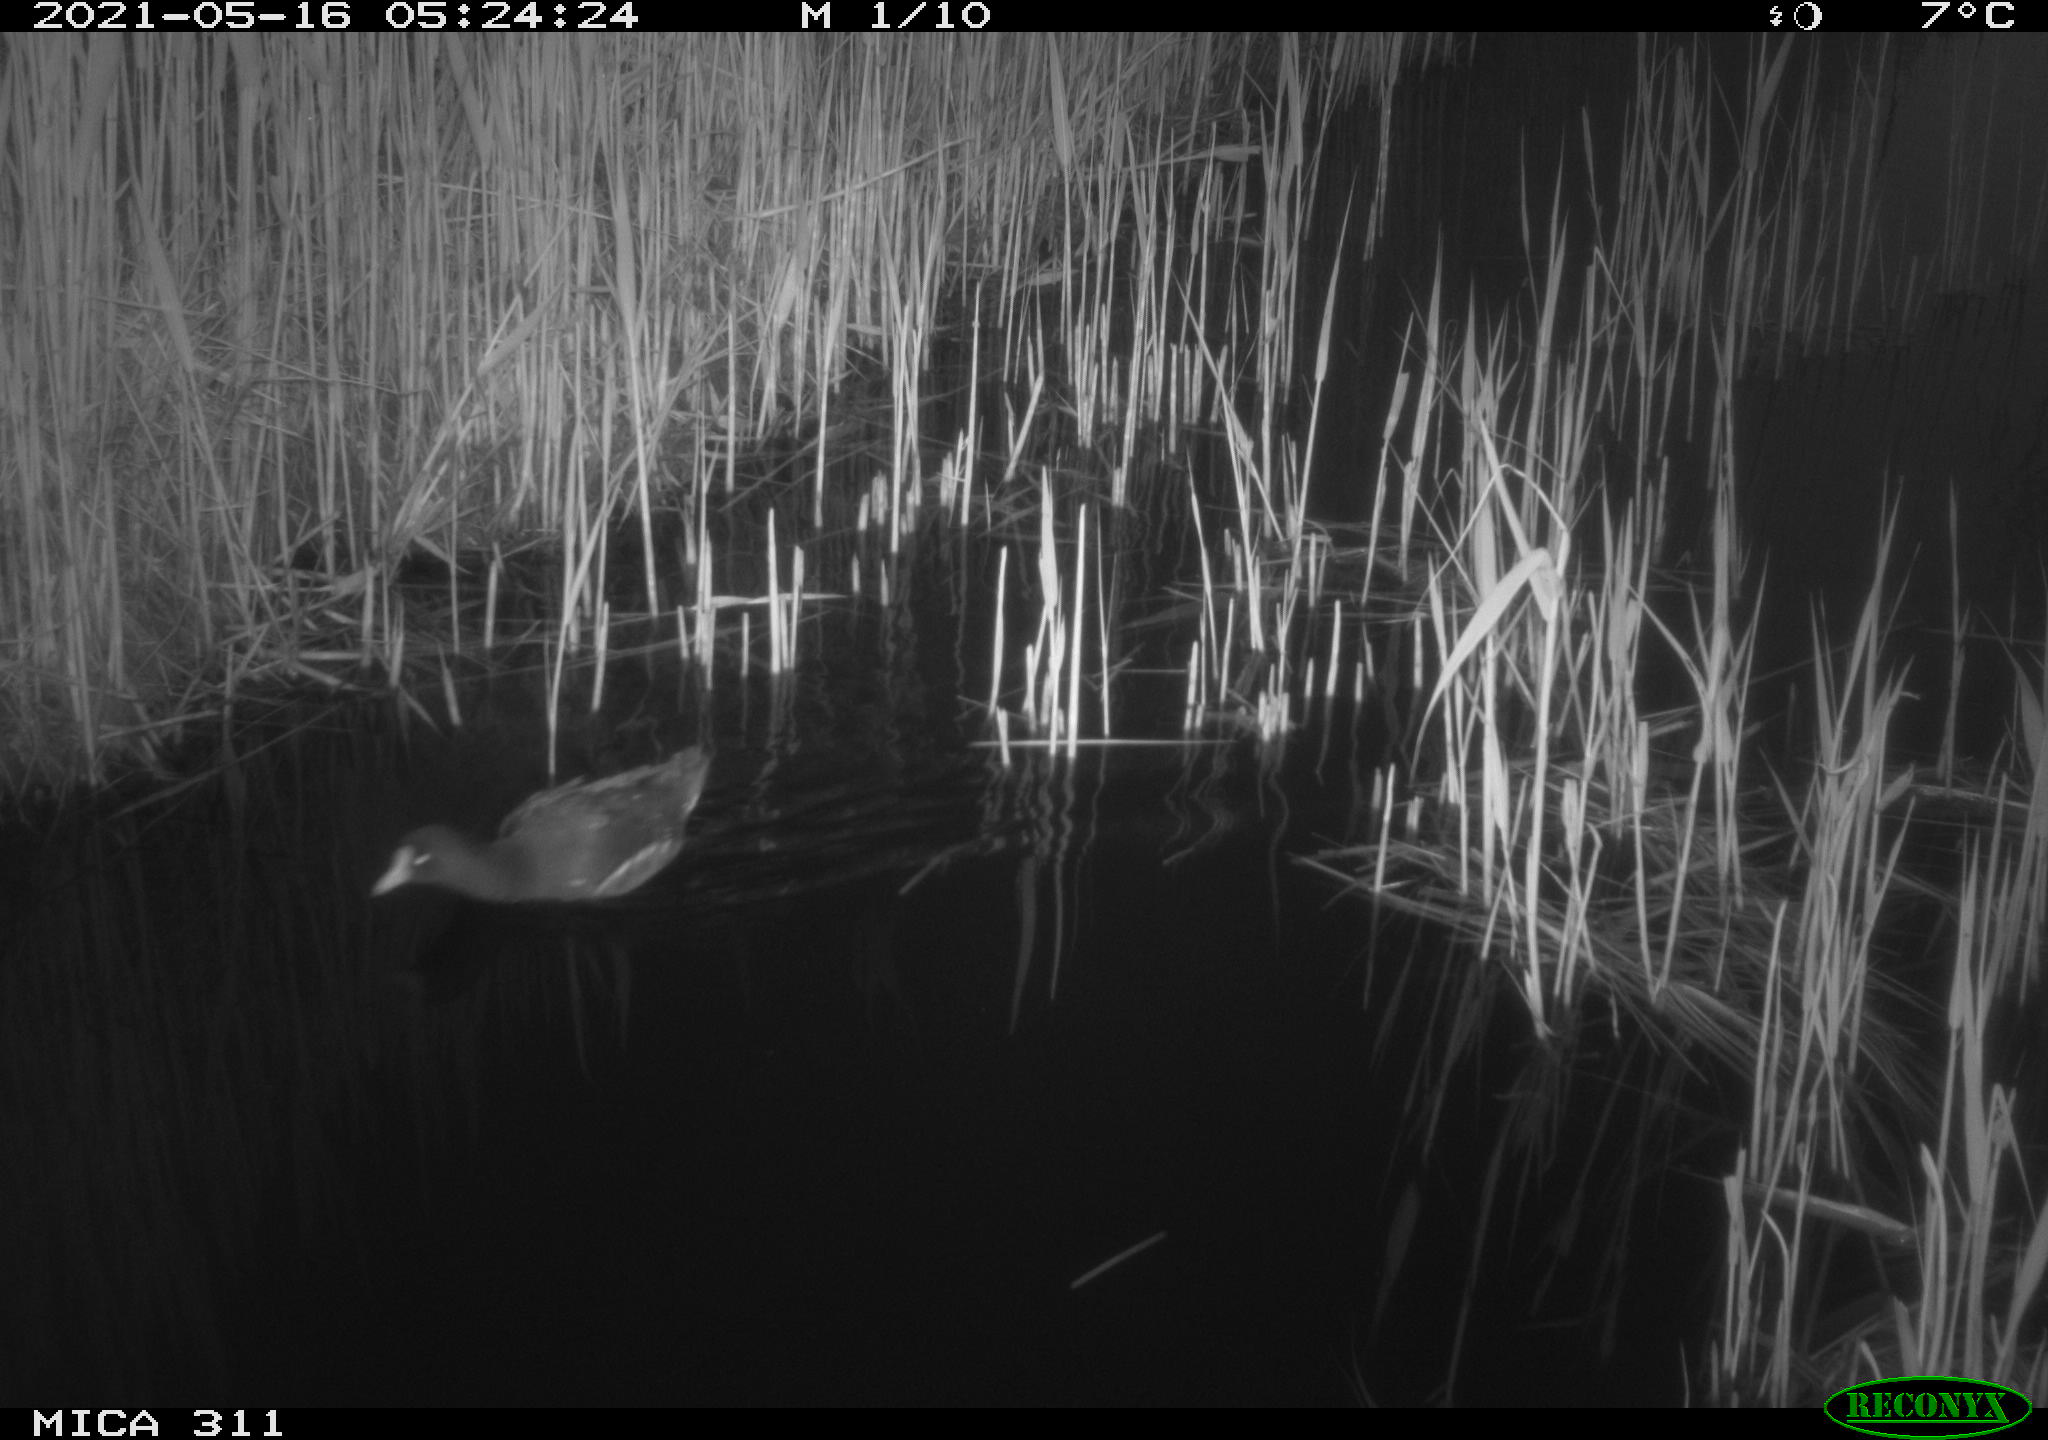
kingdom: Animalia
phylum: Chordata
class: Aves
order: Gruiformes
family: Rallidae
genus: Gallinula
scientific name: Gallinula chloropus
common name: Common moorhen
